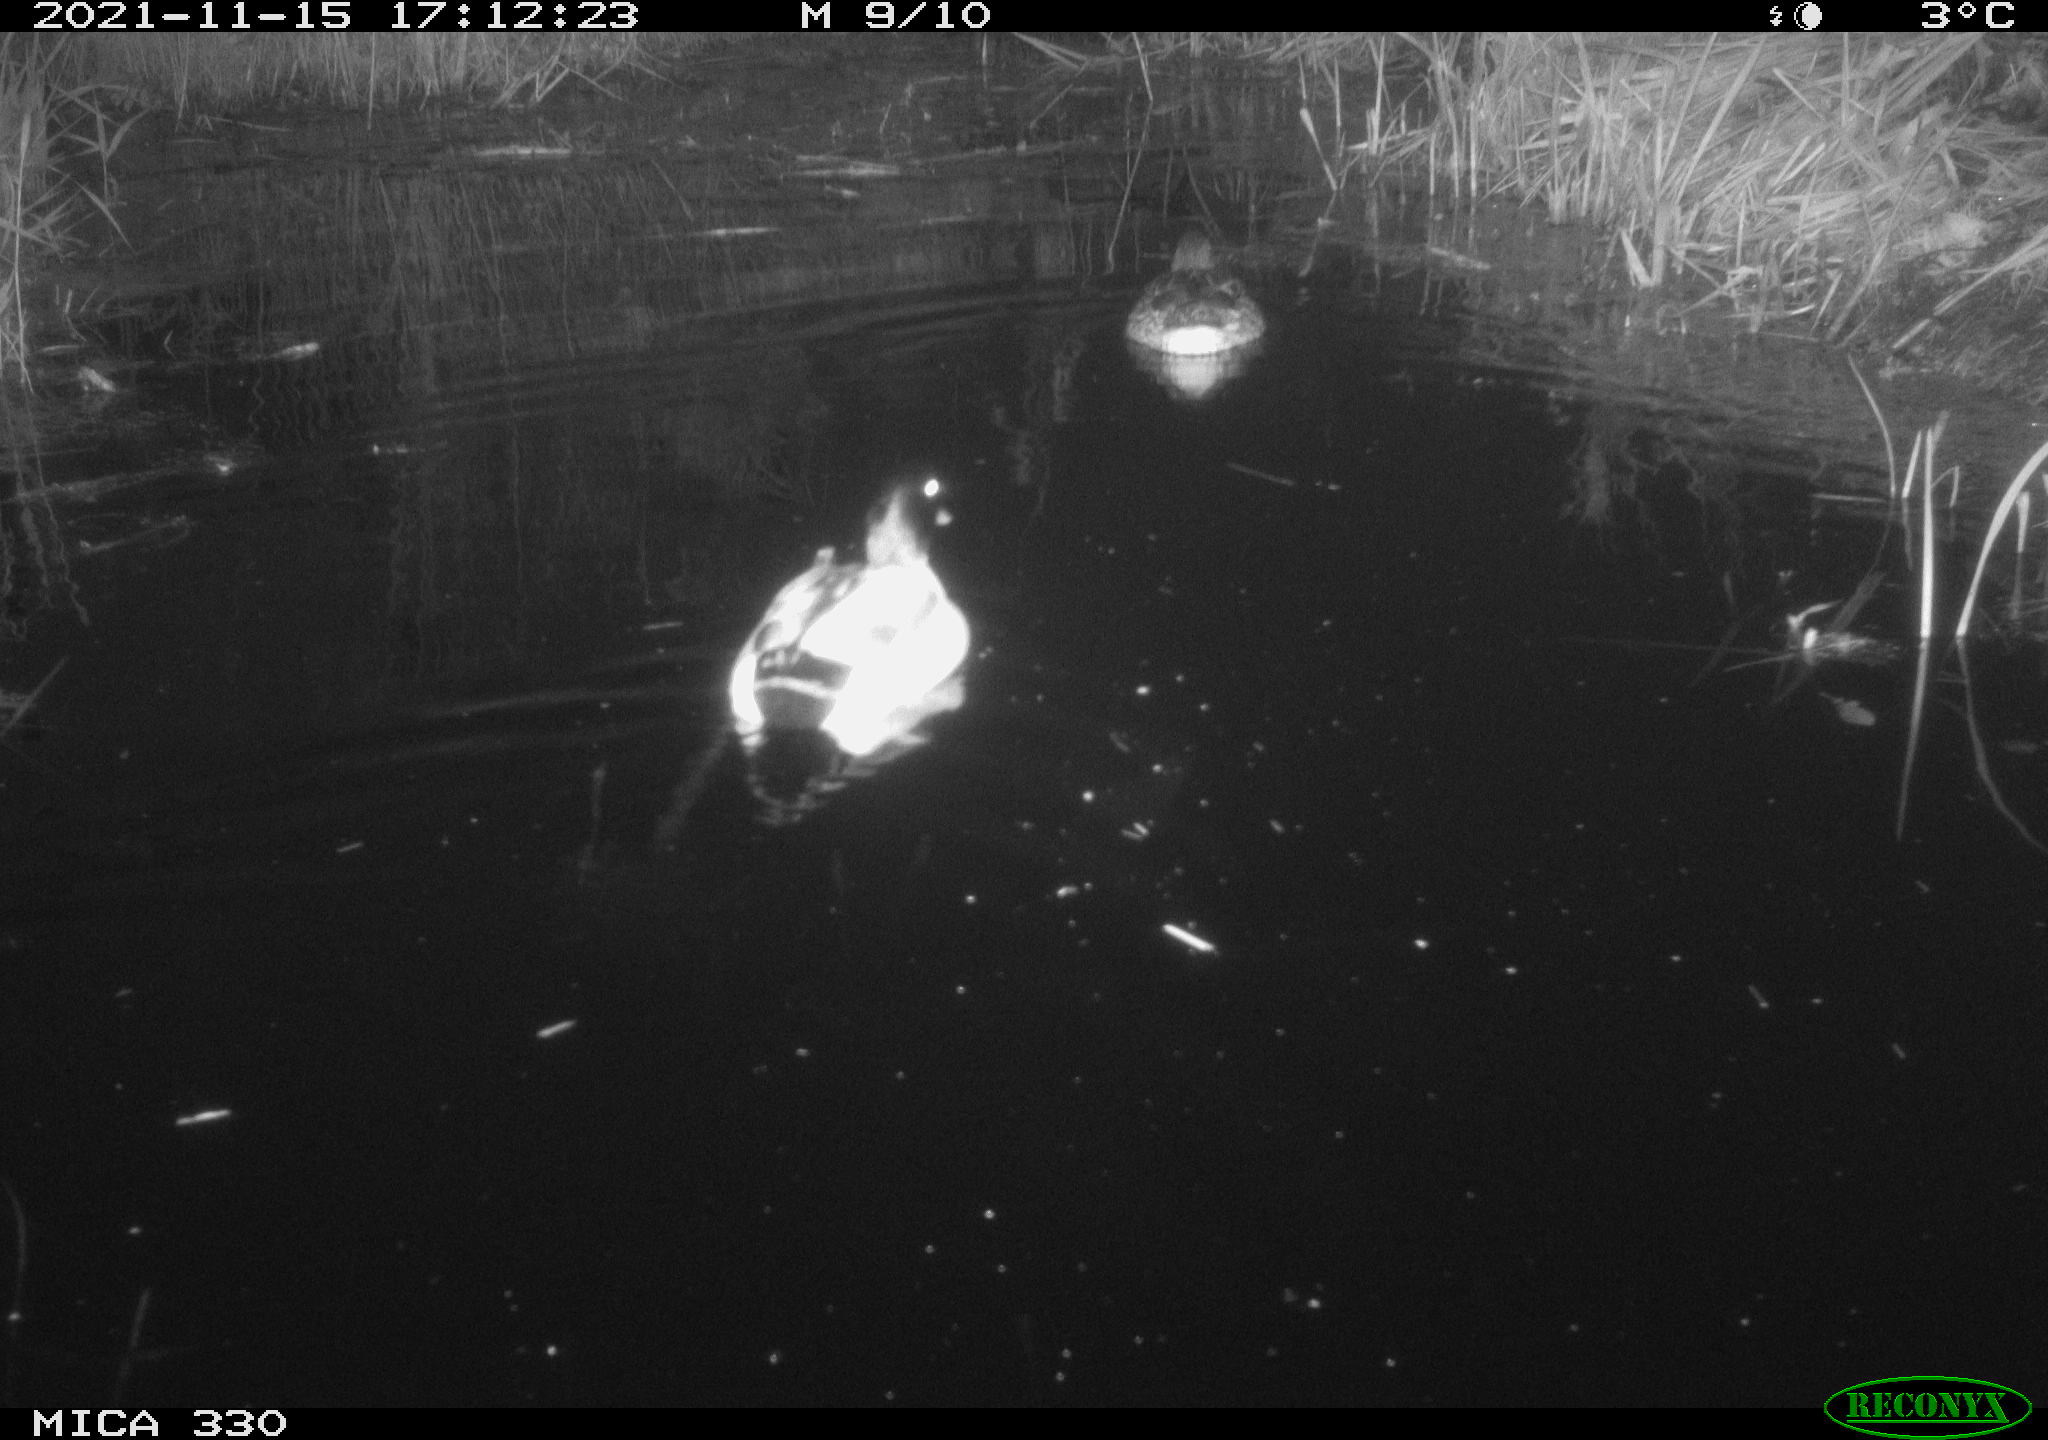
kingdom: Animalia
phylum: Chordata
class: Aves
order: Anseriformes
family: Anatidae
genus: Anas
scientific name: Anas platyrhynchos
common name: Mallard
